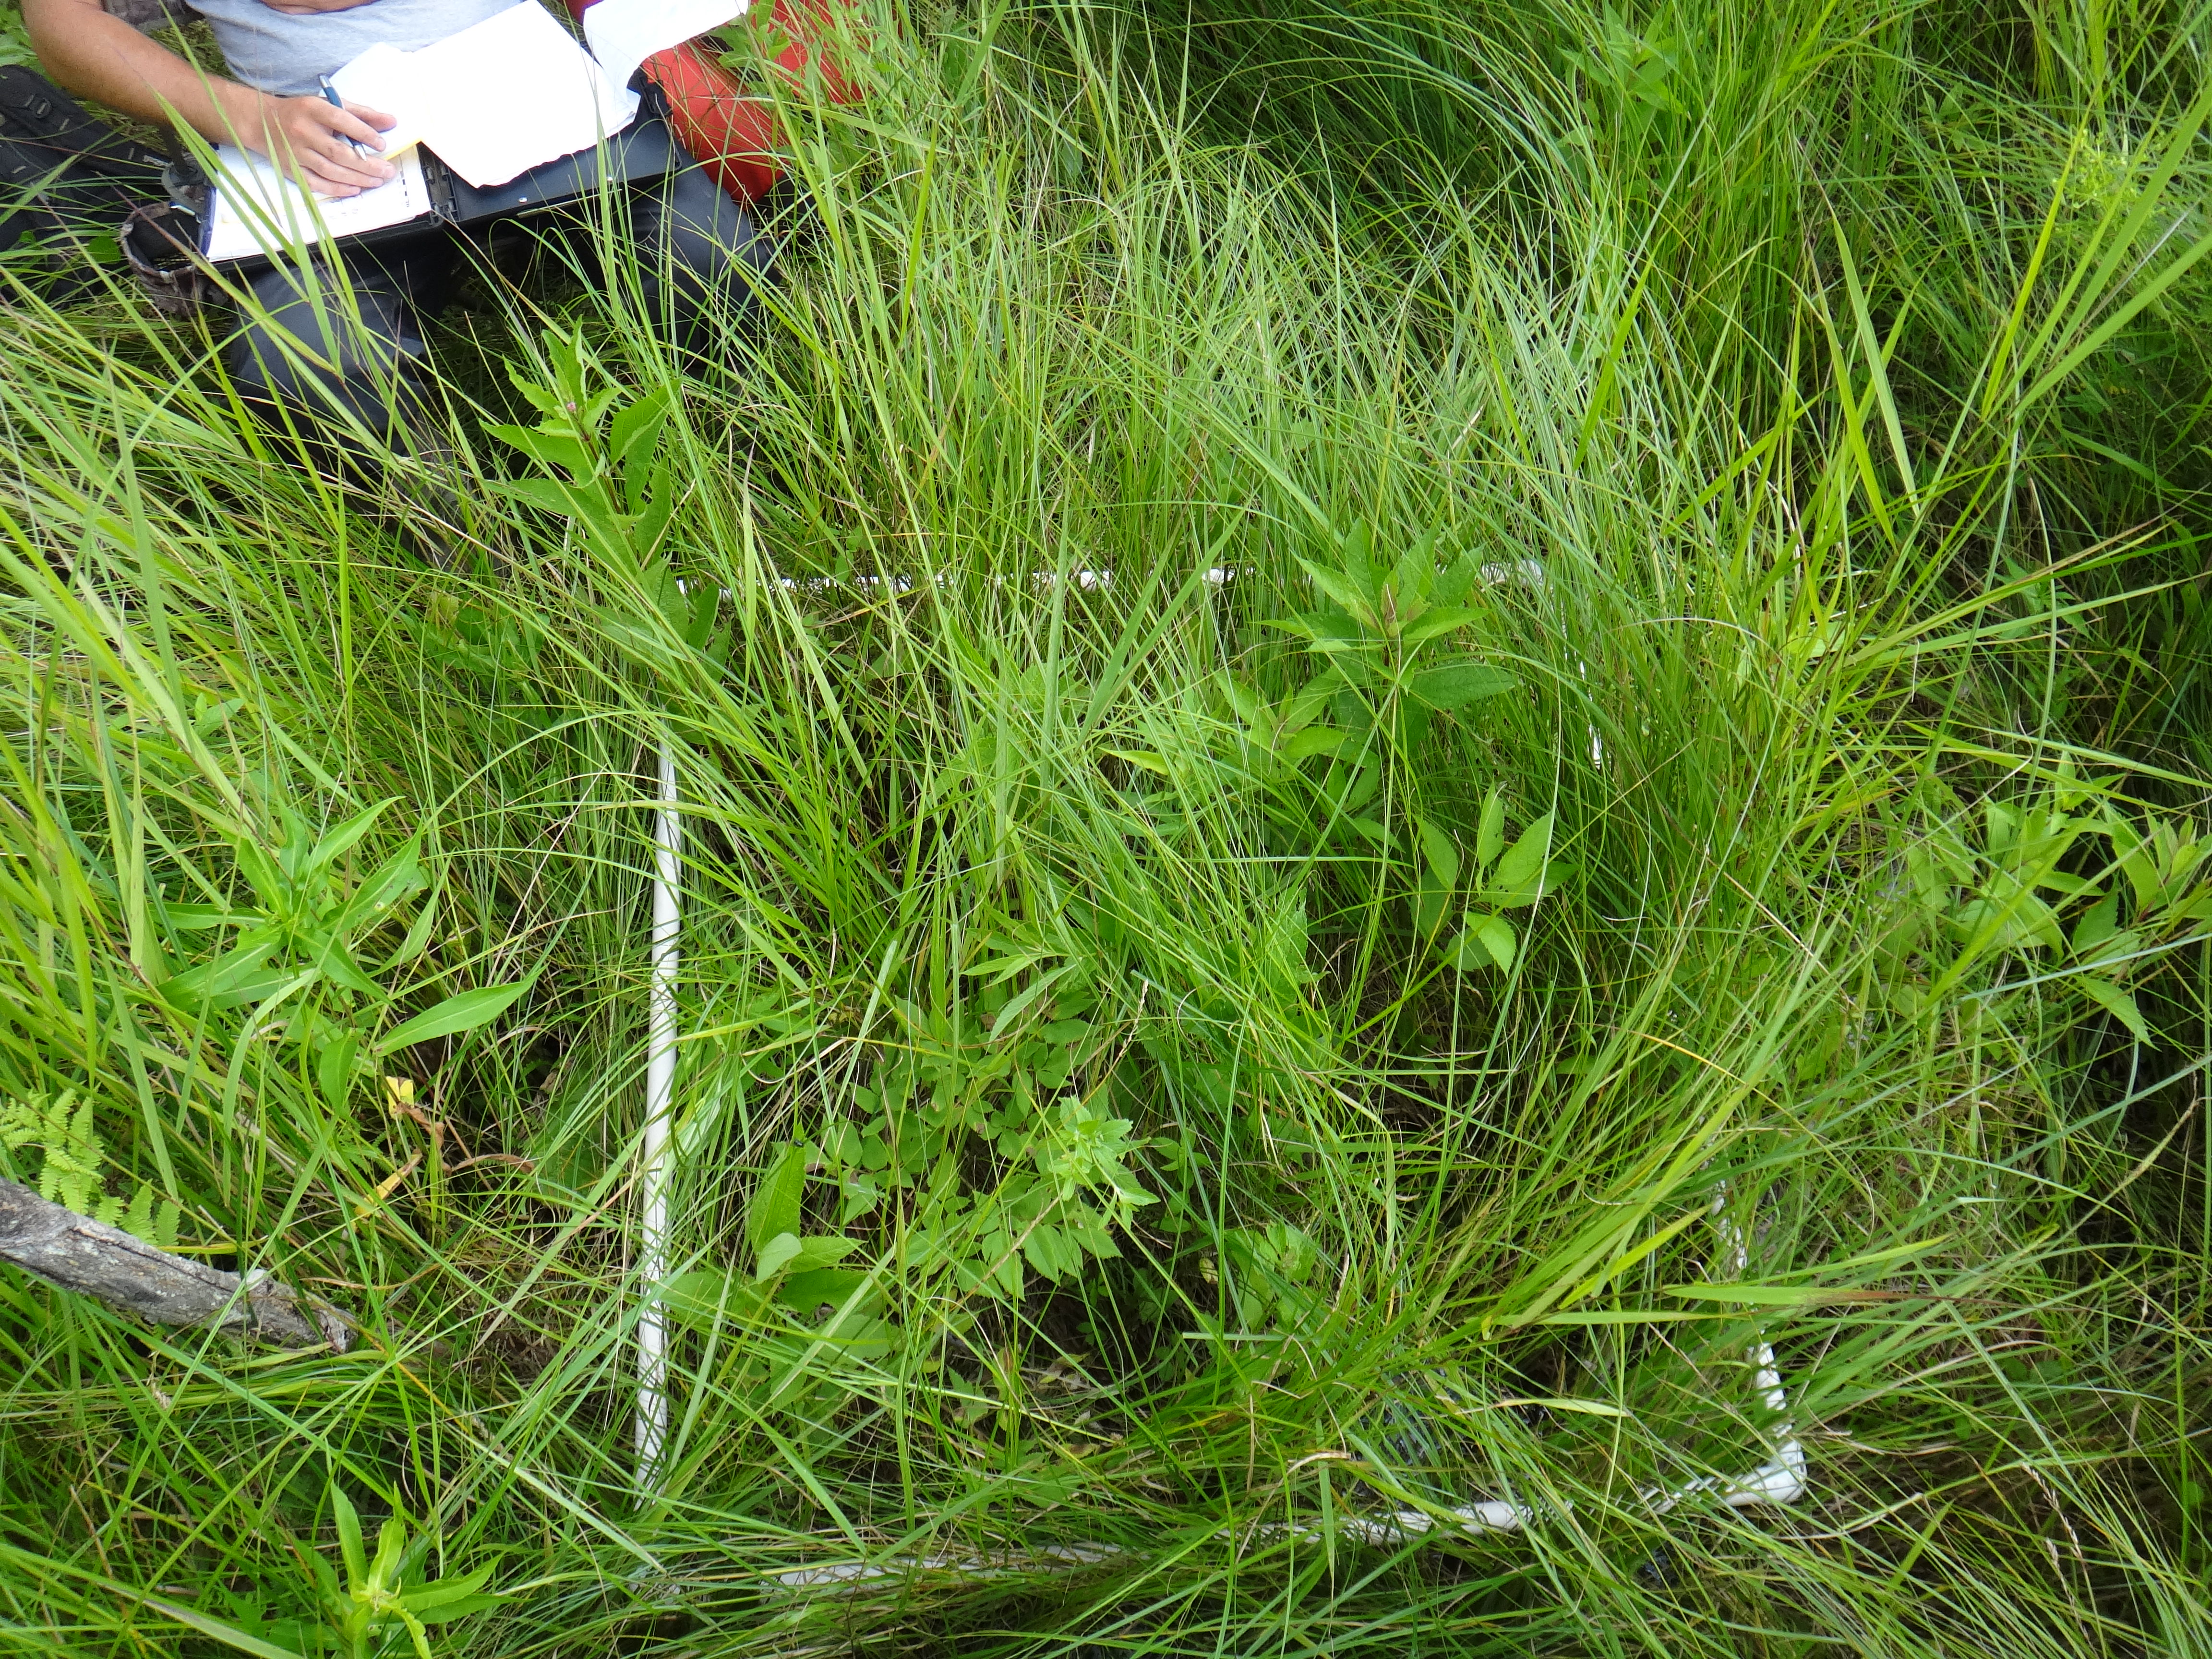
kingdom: Plantae
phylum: Tracheophyta
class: Magnoliopsida
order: Rosales
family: Urticaceae
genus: Pilea
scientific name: Pilea pumila
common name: Clearweed
